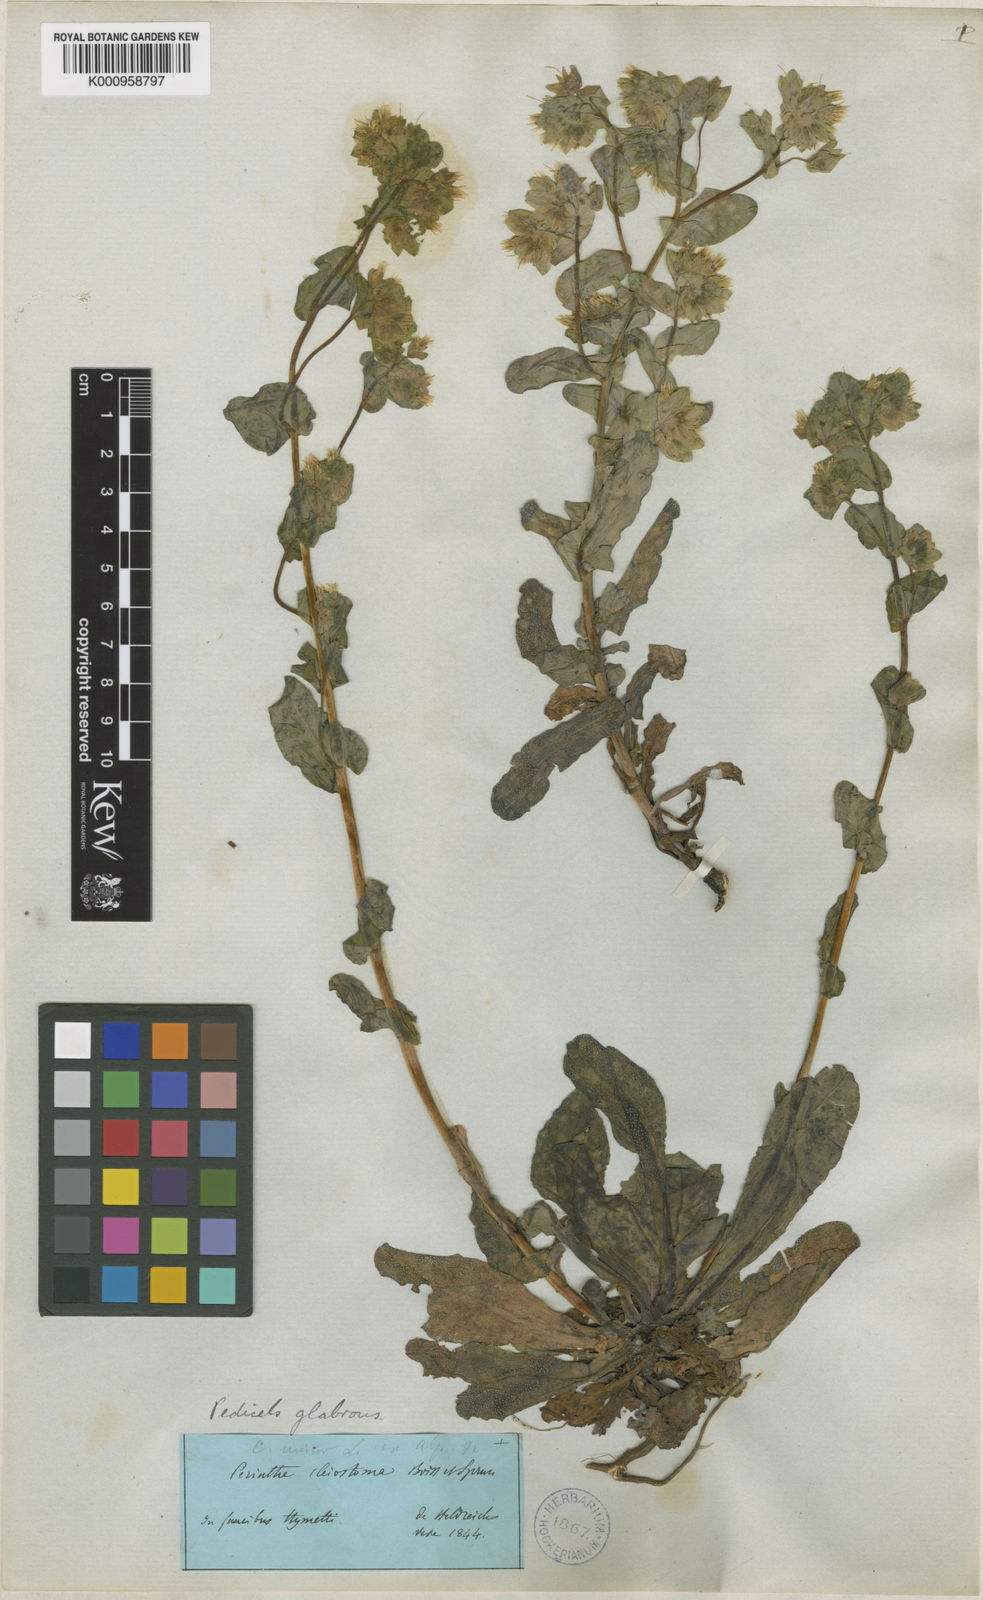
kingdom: Plantae
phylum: Tracheophyta
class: Magnoliopsida
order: Boraginales
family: Boraginaceae
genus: Cerinthe
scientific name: Cerinthe minor
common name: Lesser honeywort
